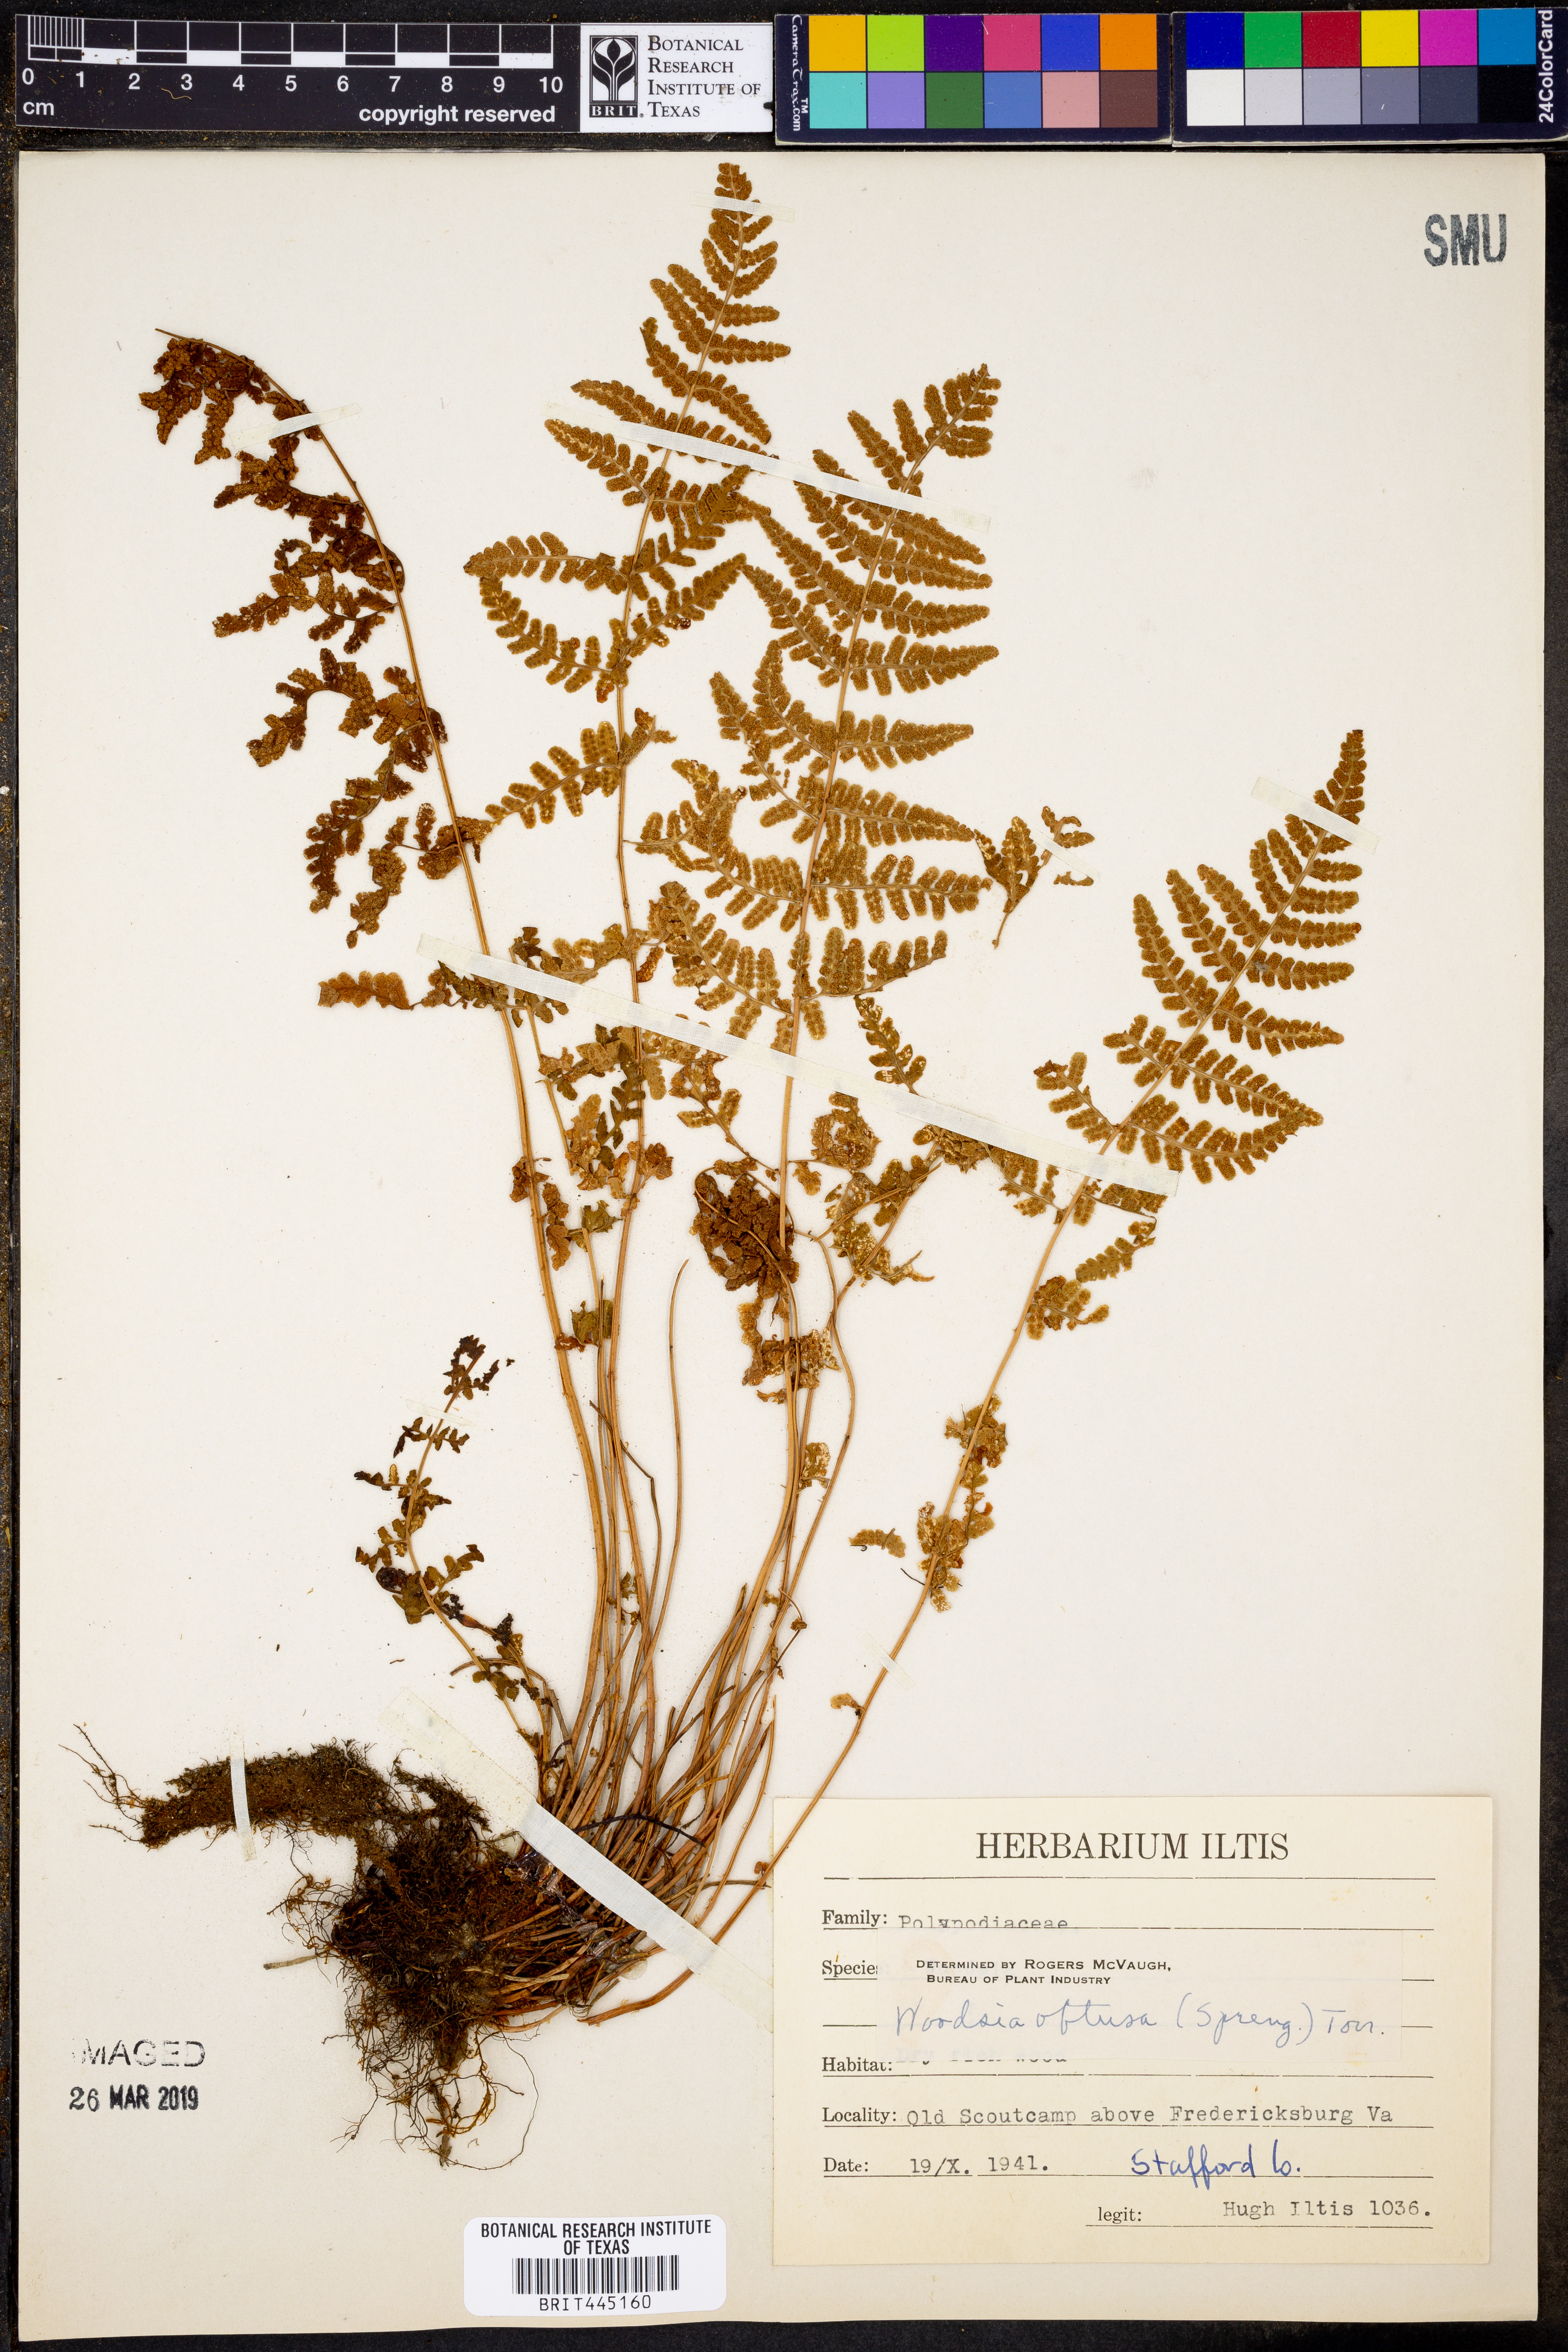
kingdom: Plantae
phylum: Tracheophyta
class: Polypodiopsida
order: Polypodiales
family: Woodsiaceae
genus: Physematium
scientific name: Physematium obtusum
